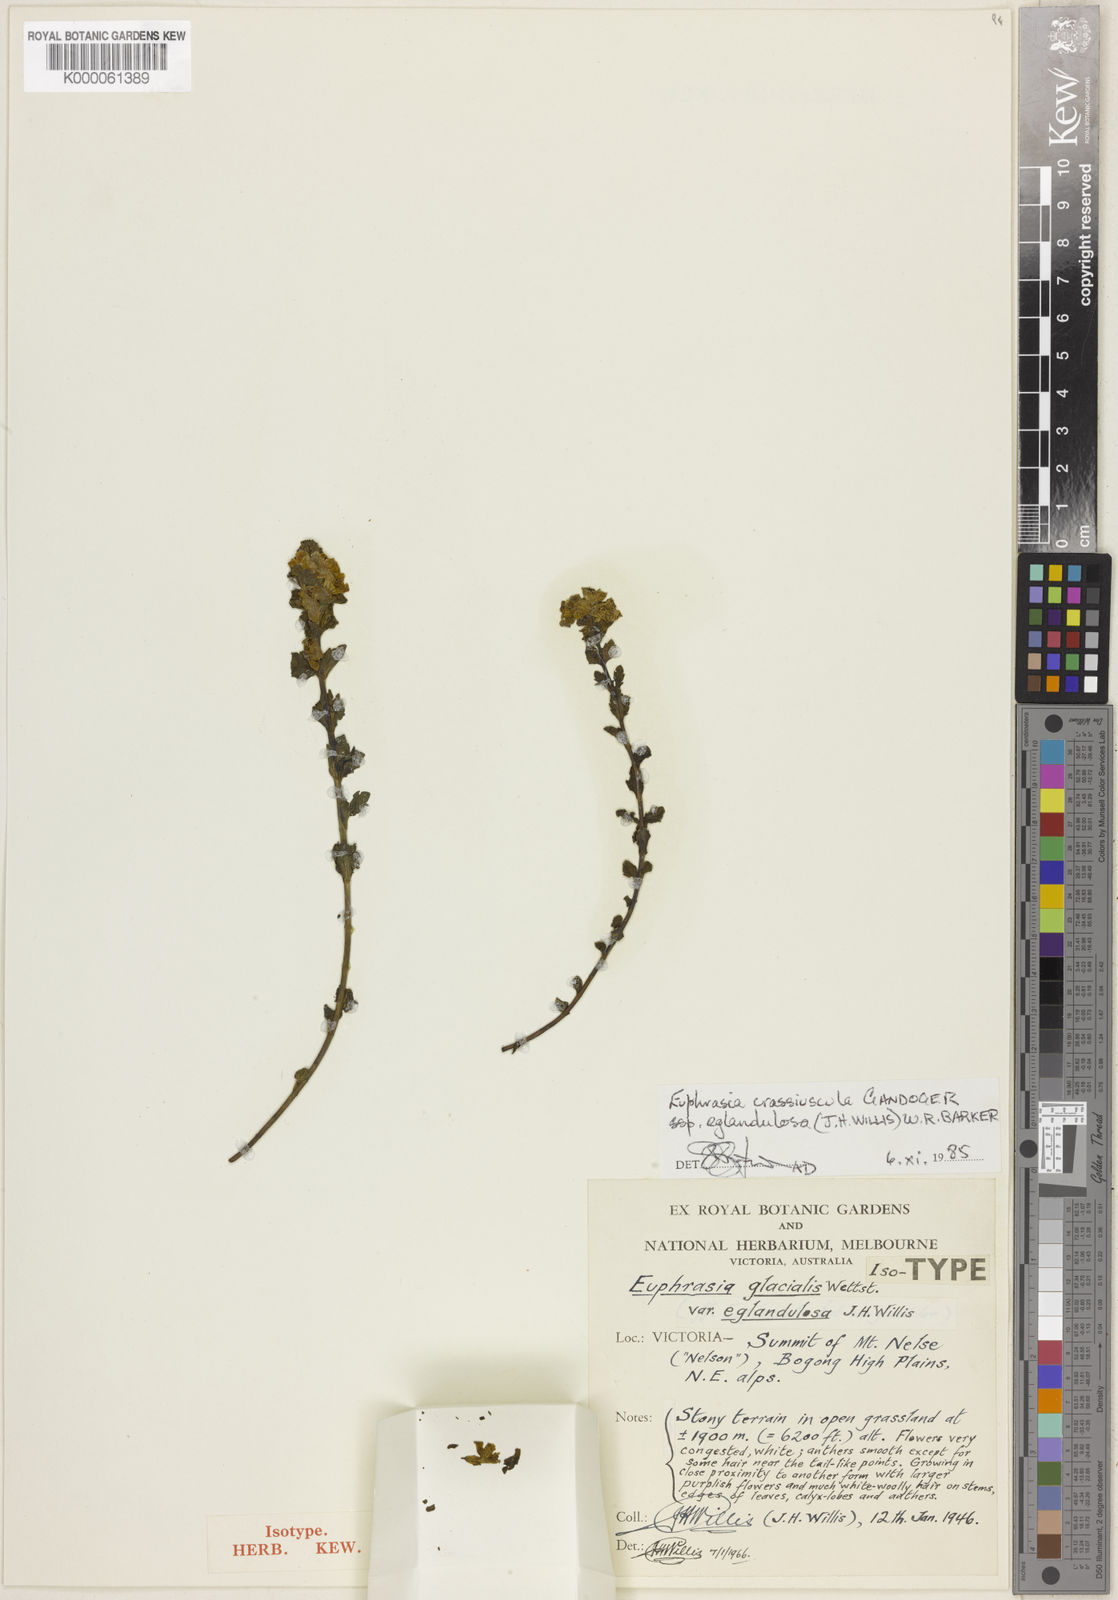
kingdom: Plantae
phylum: Tracheophyta
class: Magnoliopsida
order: Lamiales
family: Orobanchaceae
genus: Euphrasia
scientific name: Euphrasia crassiuscula
